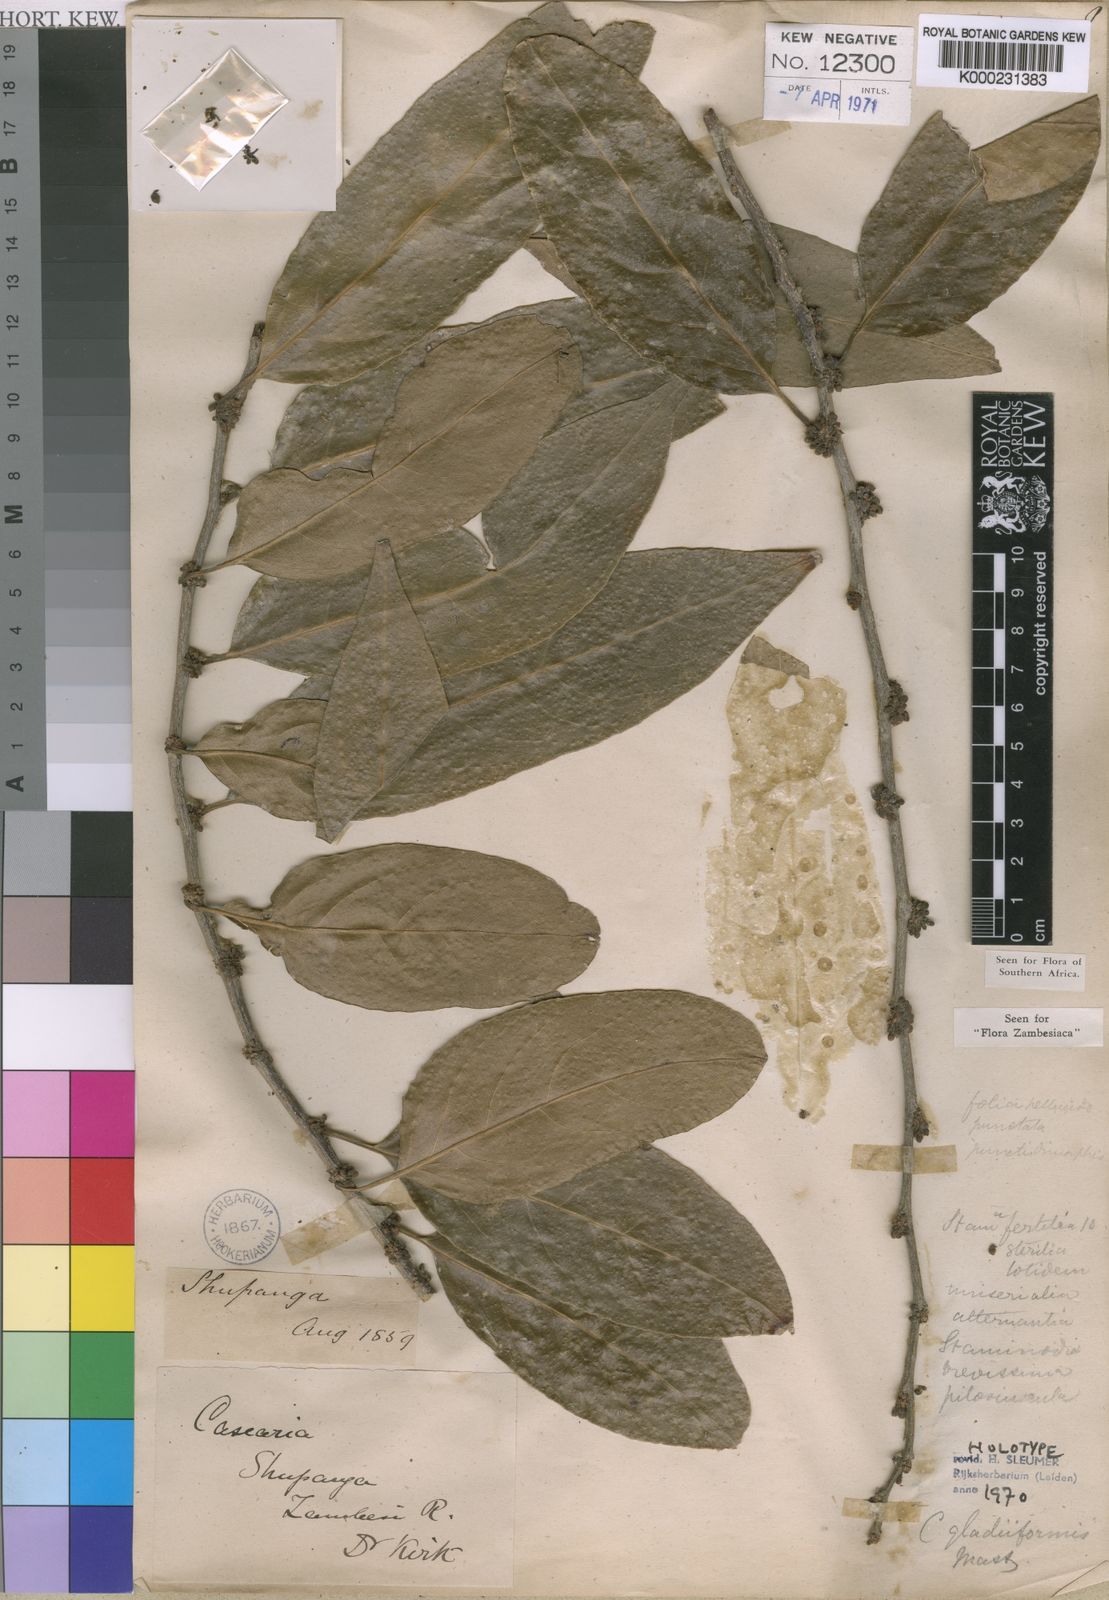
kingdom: Plantae
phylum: Tracheophyta
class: Magnoliopsida
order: Malpighiales
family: Salicaceae
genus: Casearia
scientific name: Casearia gladiiformis
